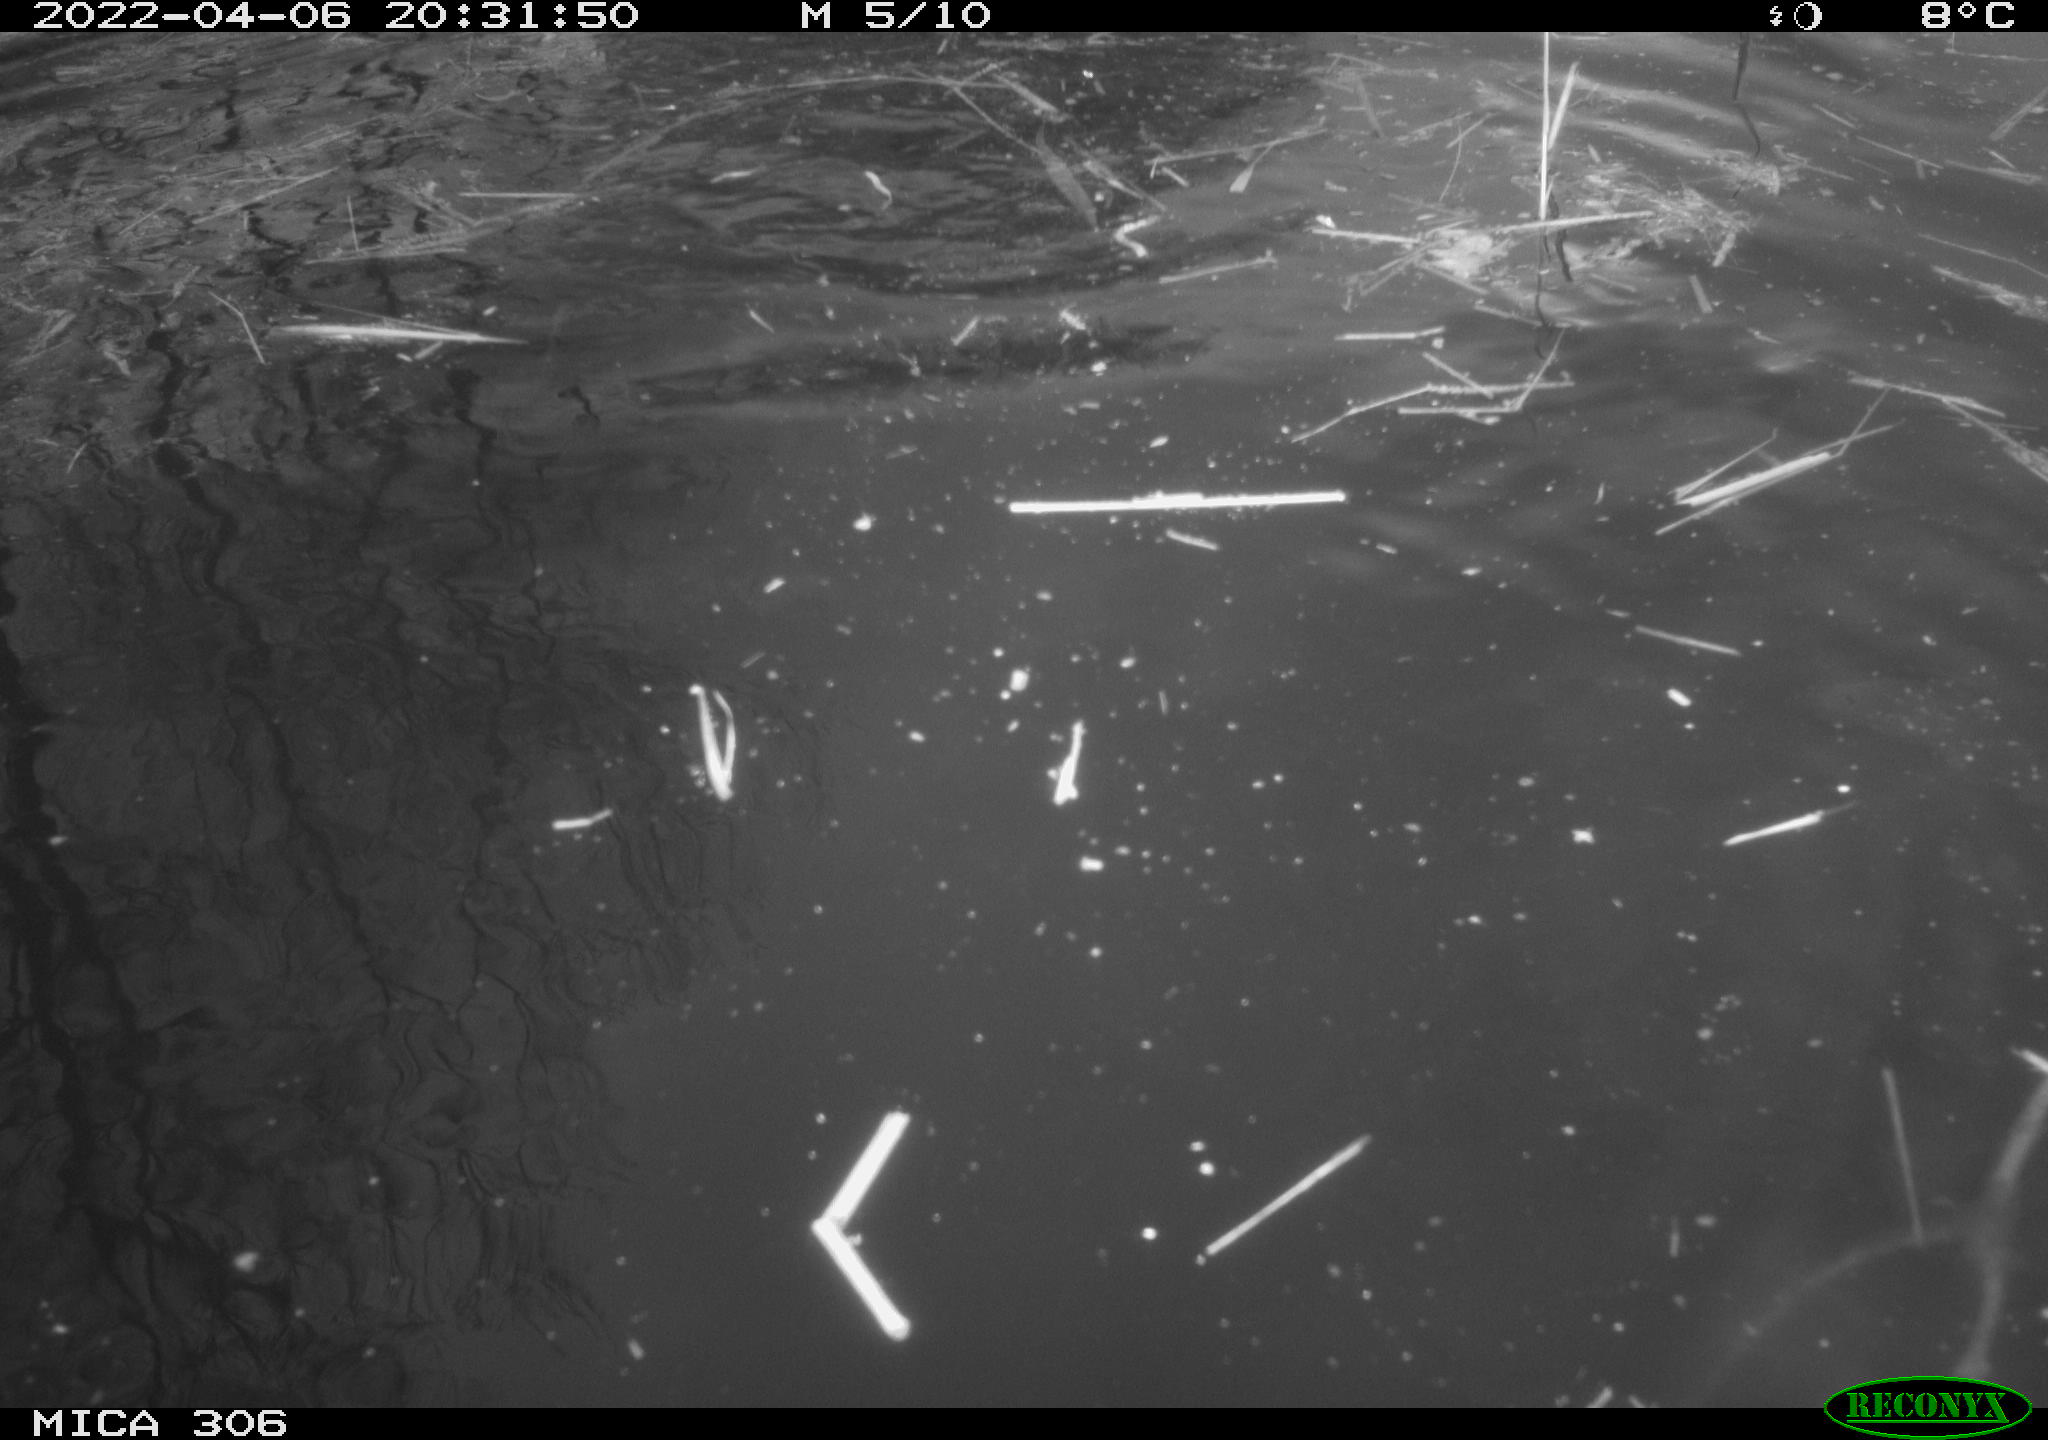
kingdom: Animalia
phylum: Chordata
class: Aves
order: Anseriformes
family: Anatidae
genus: Anas
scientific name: Anas platyrhynchos
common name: Mallard
